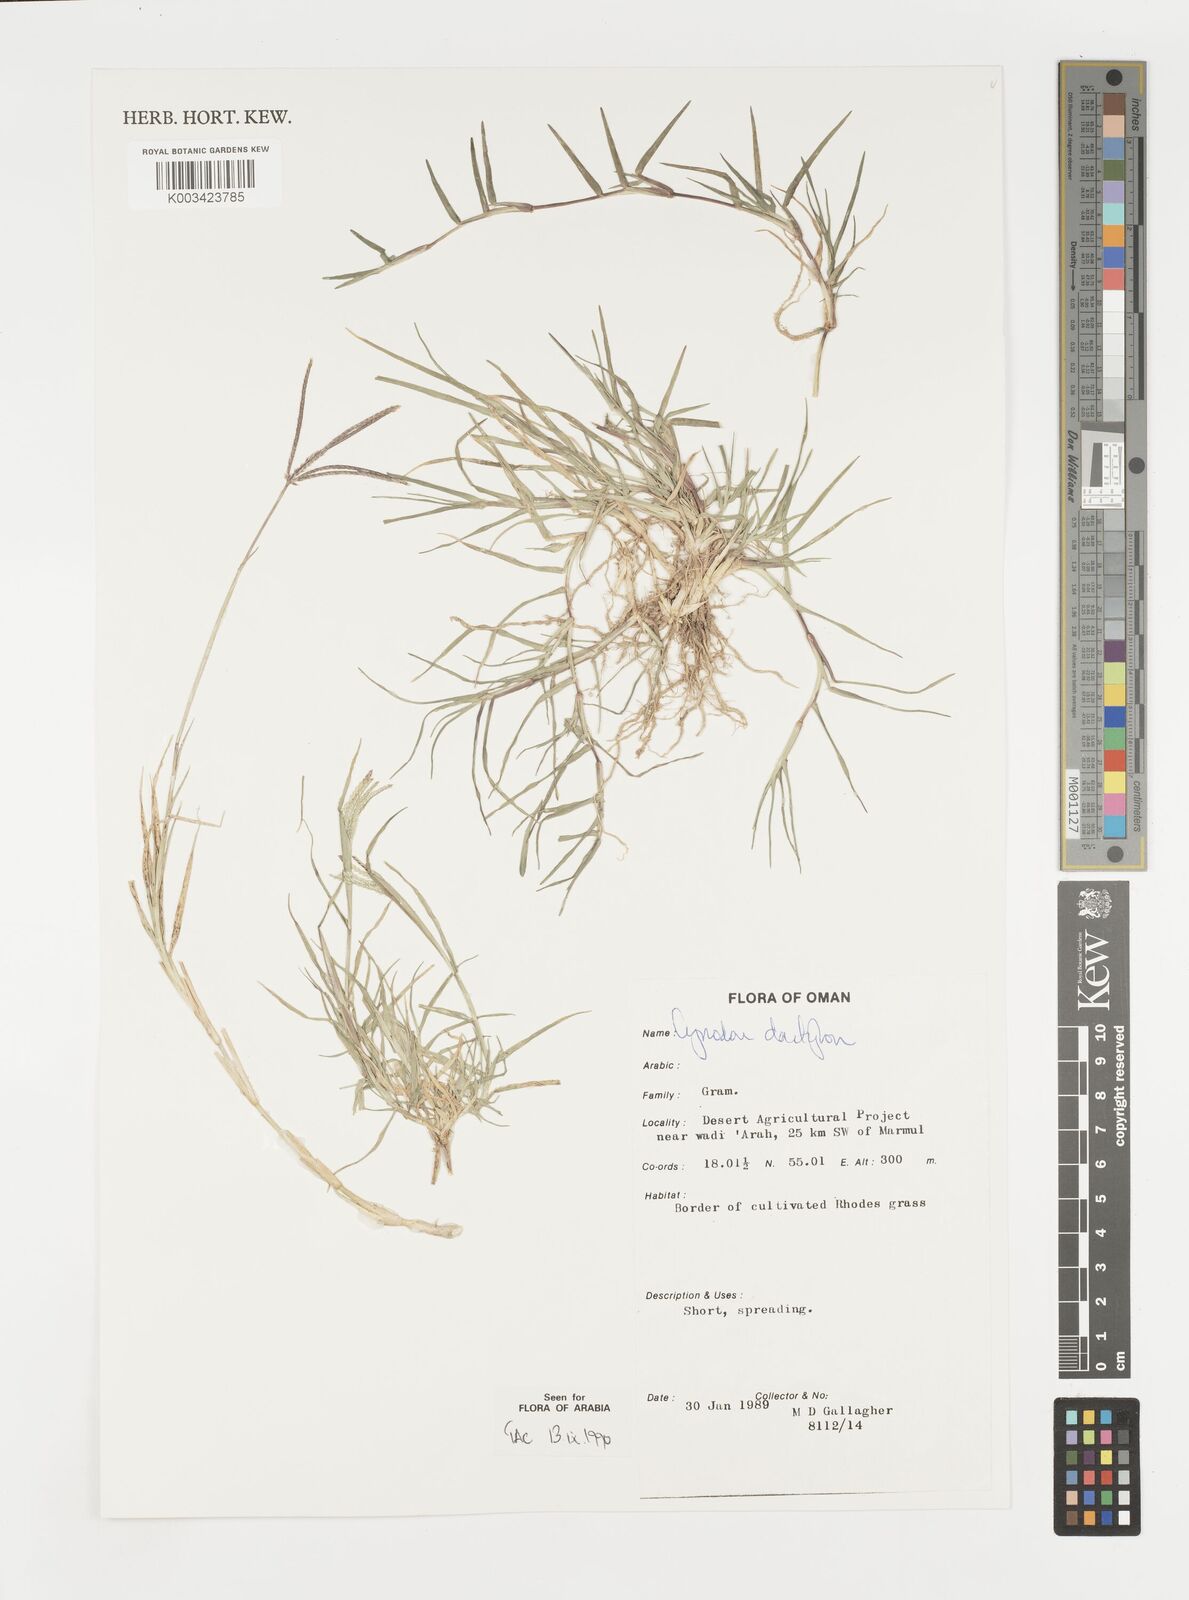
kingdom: Plantae
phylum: Tracheophyta
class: Liliopsida
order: Poales
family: Poaceae
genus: Cynodon
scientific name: Cynodon dactylon
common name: Bermuda grass
